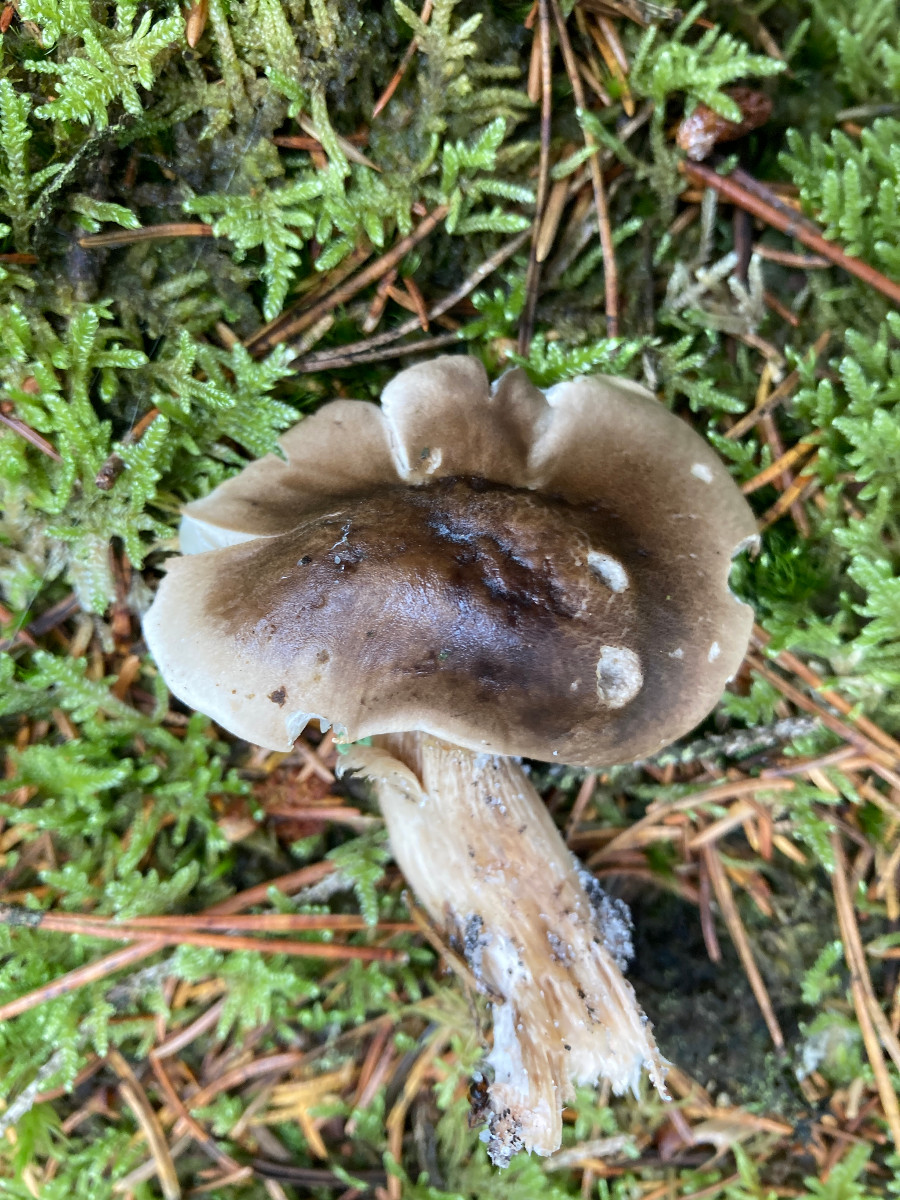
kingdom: Fungi
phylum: Basidiomycota
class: Agaricomycetes
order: Agaricales
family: Tricholomataceae
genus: Tricholoma
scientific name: Tricholoma
